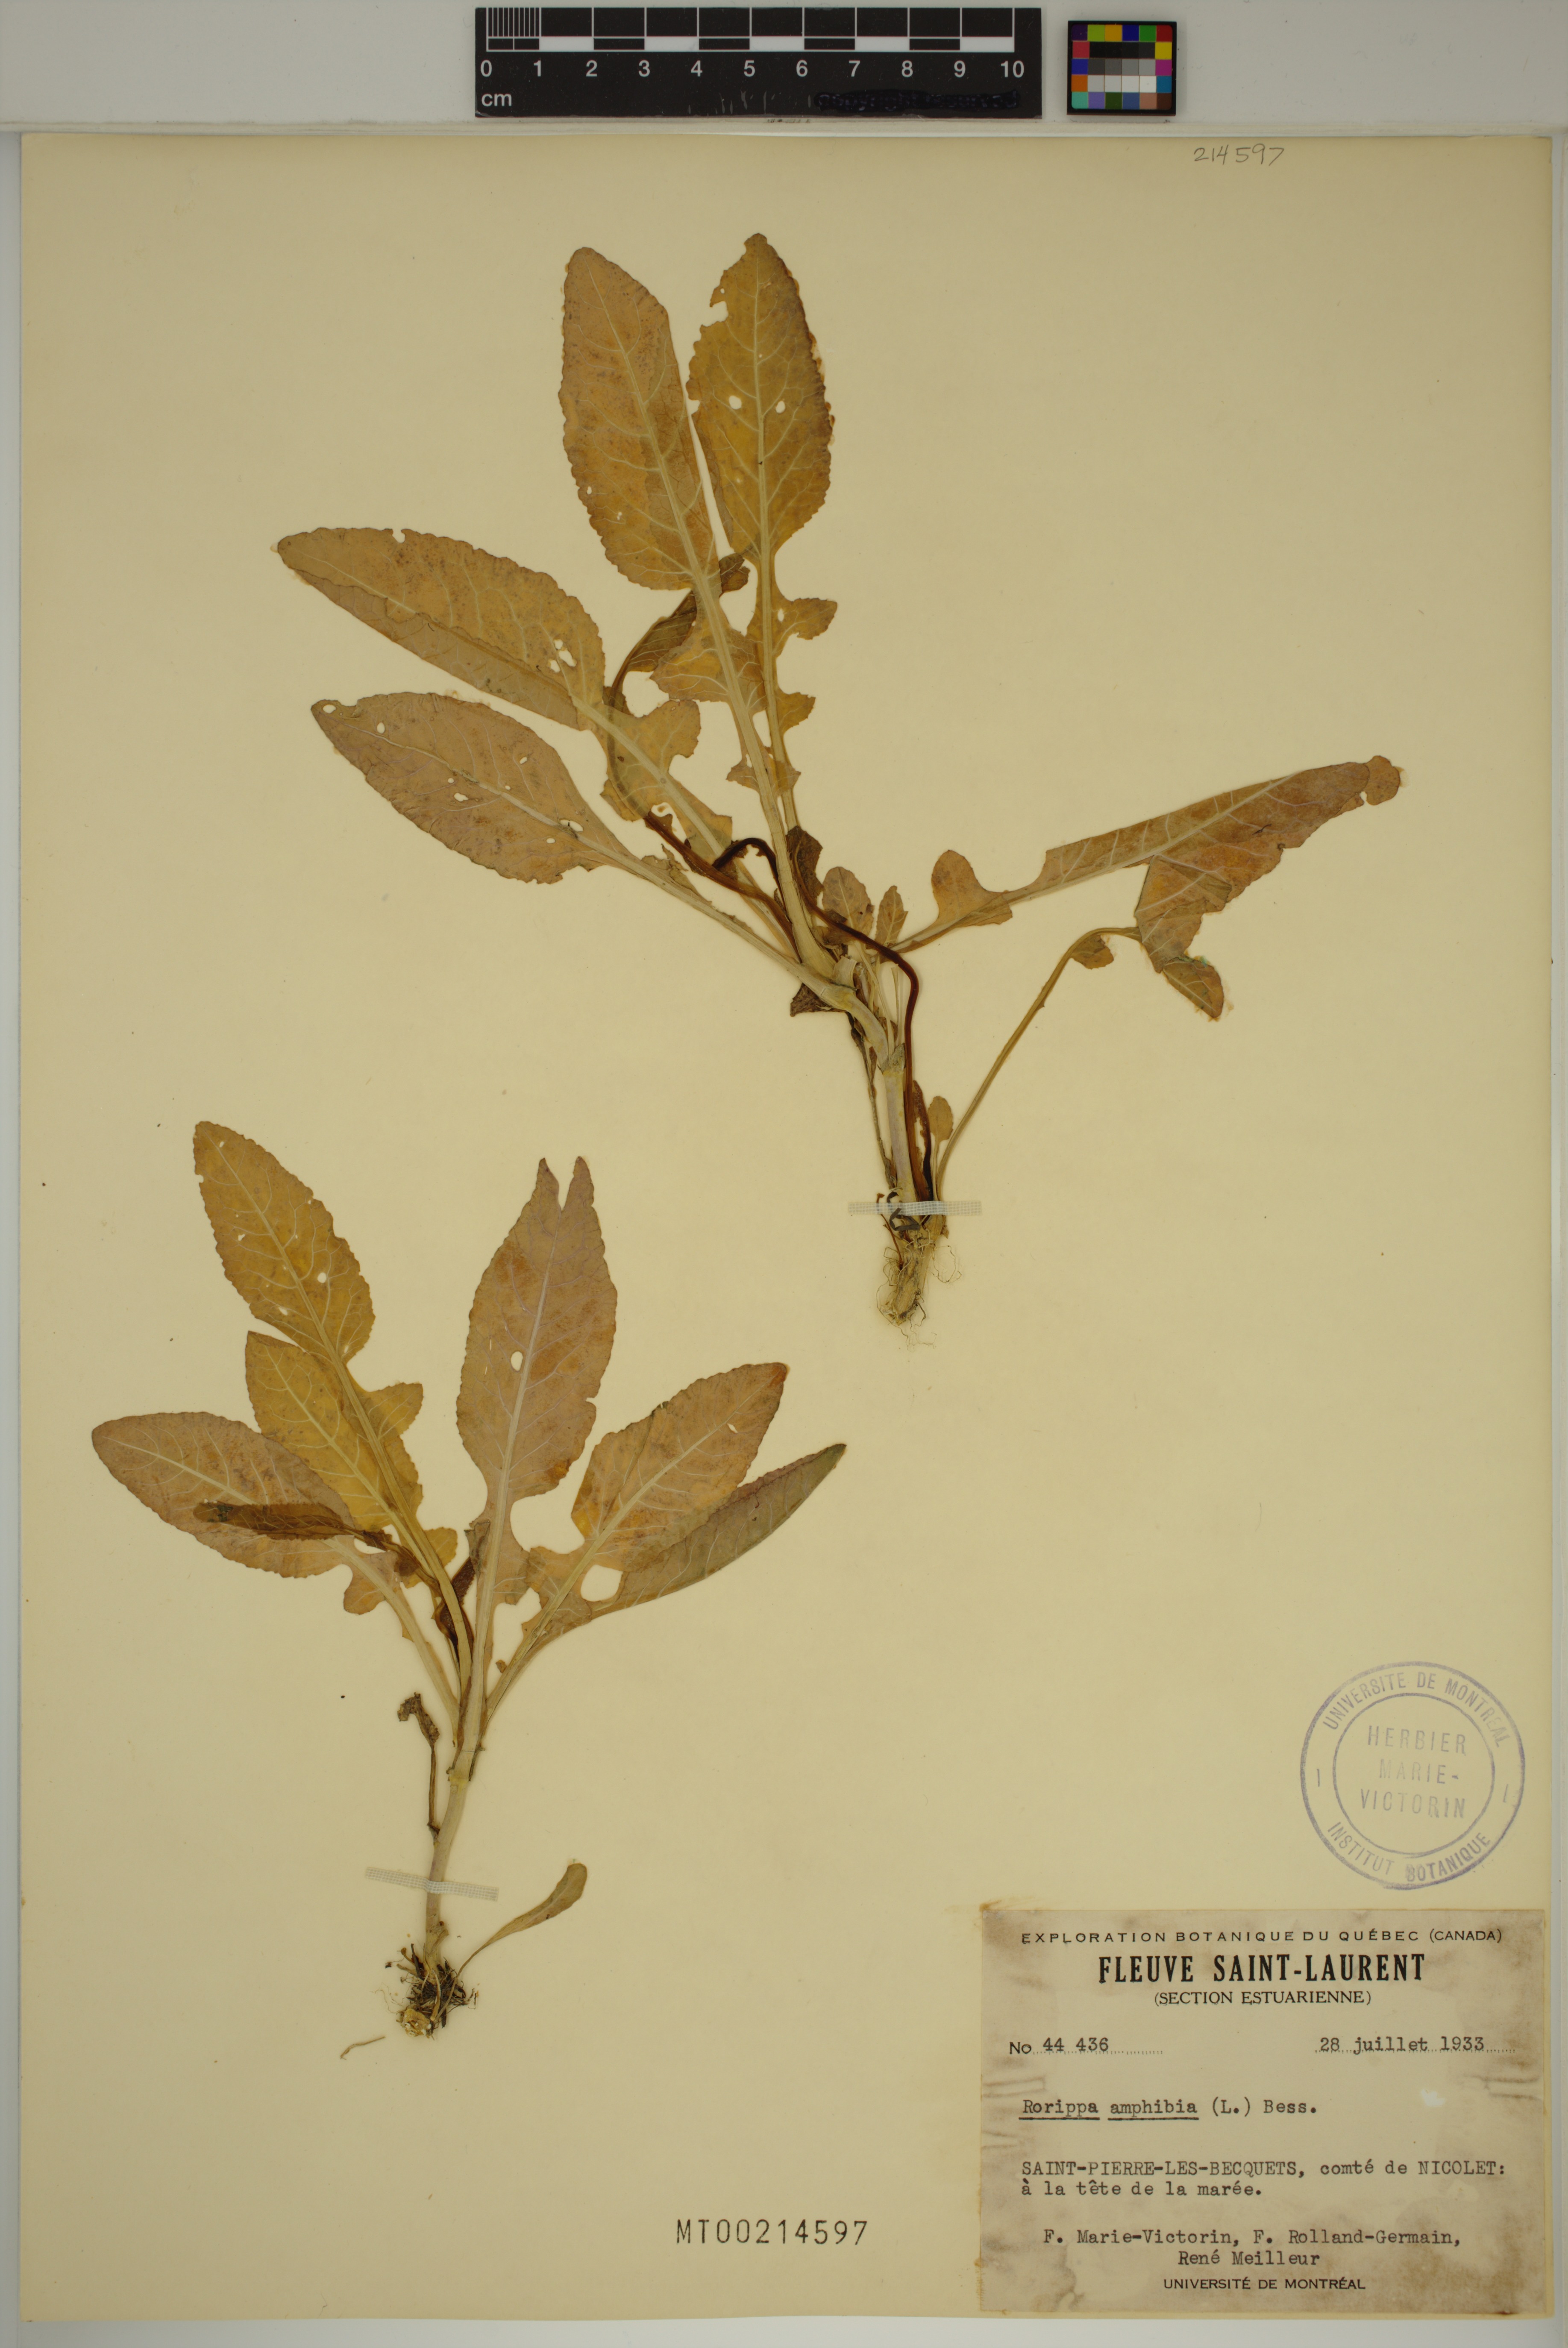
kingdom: Plantae
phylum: Tracheophyta
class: Magnoliopsida
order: Brassicales
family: Brassicaceae
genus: Rorippa
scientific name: Rorippa amphibia
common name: Great yellow-cress
